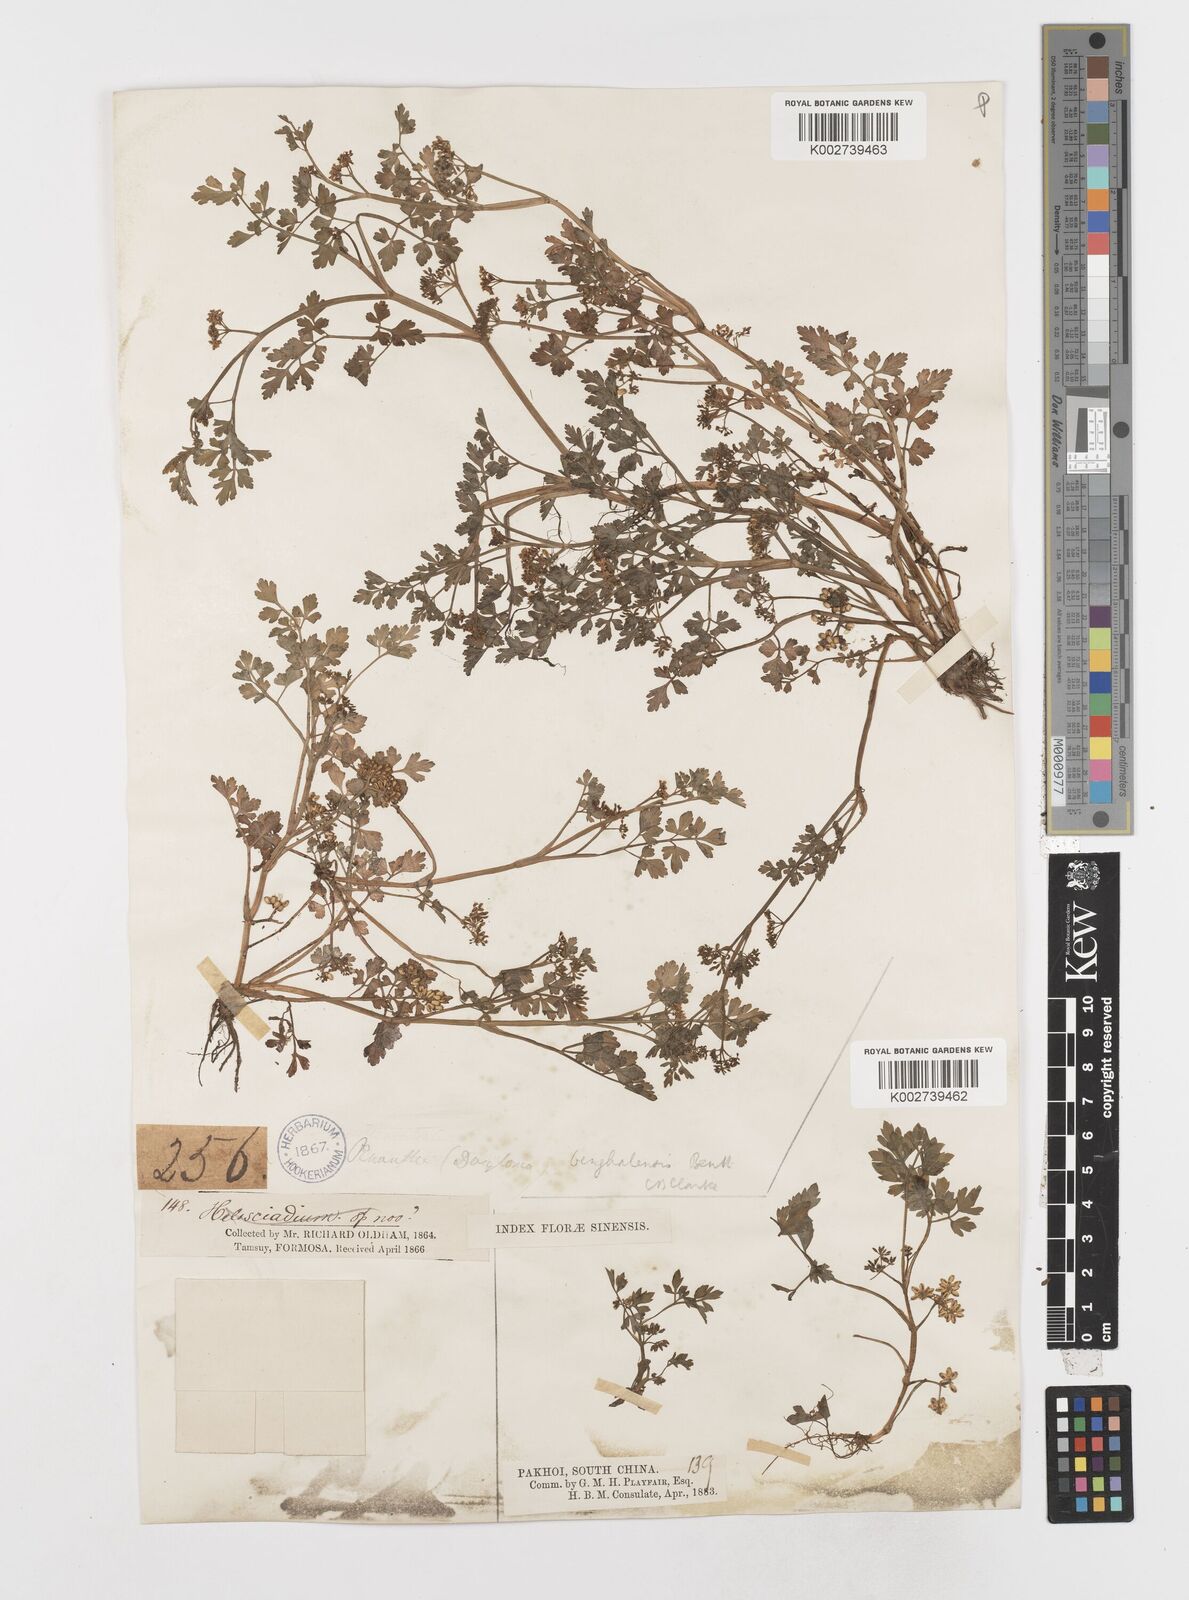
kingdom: Plantae
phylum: Tracheophyta
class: Magnoliopsida
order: Apiales
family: Apiaceae
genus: Oenanthe
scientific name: Oenanthe javanica
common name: Java water-dropwort
